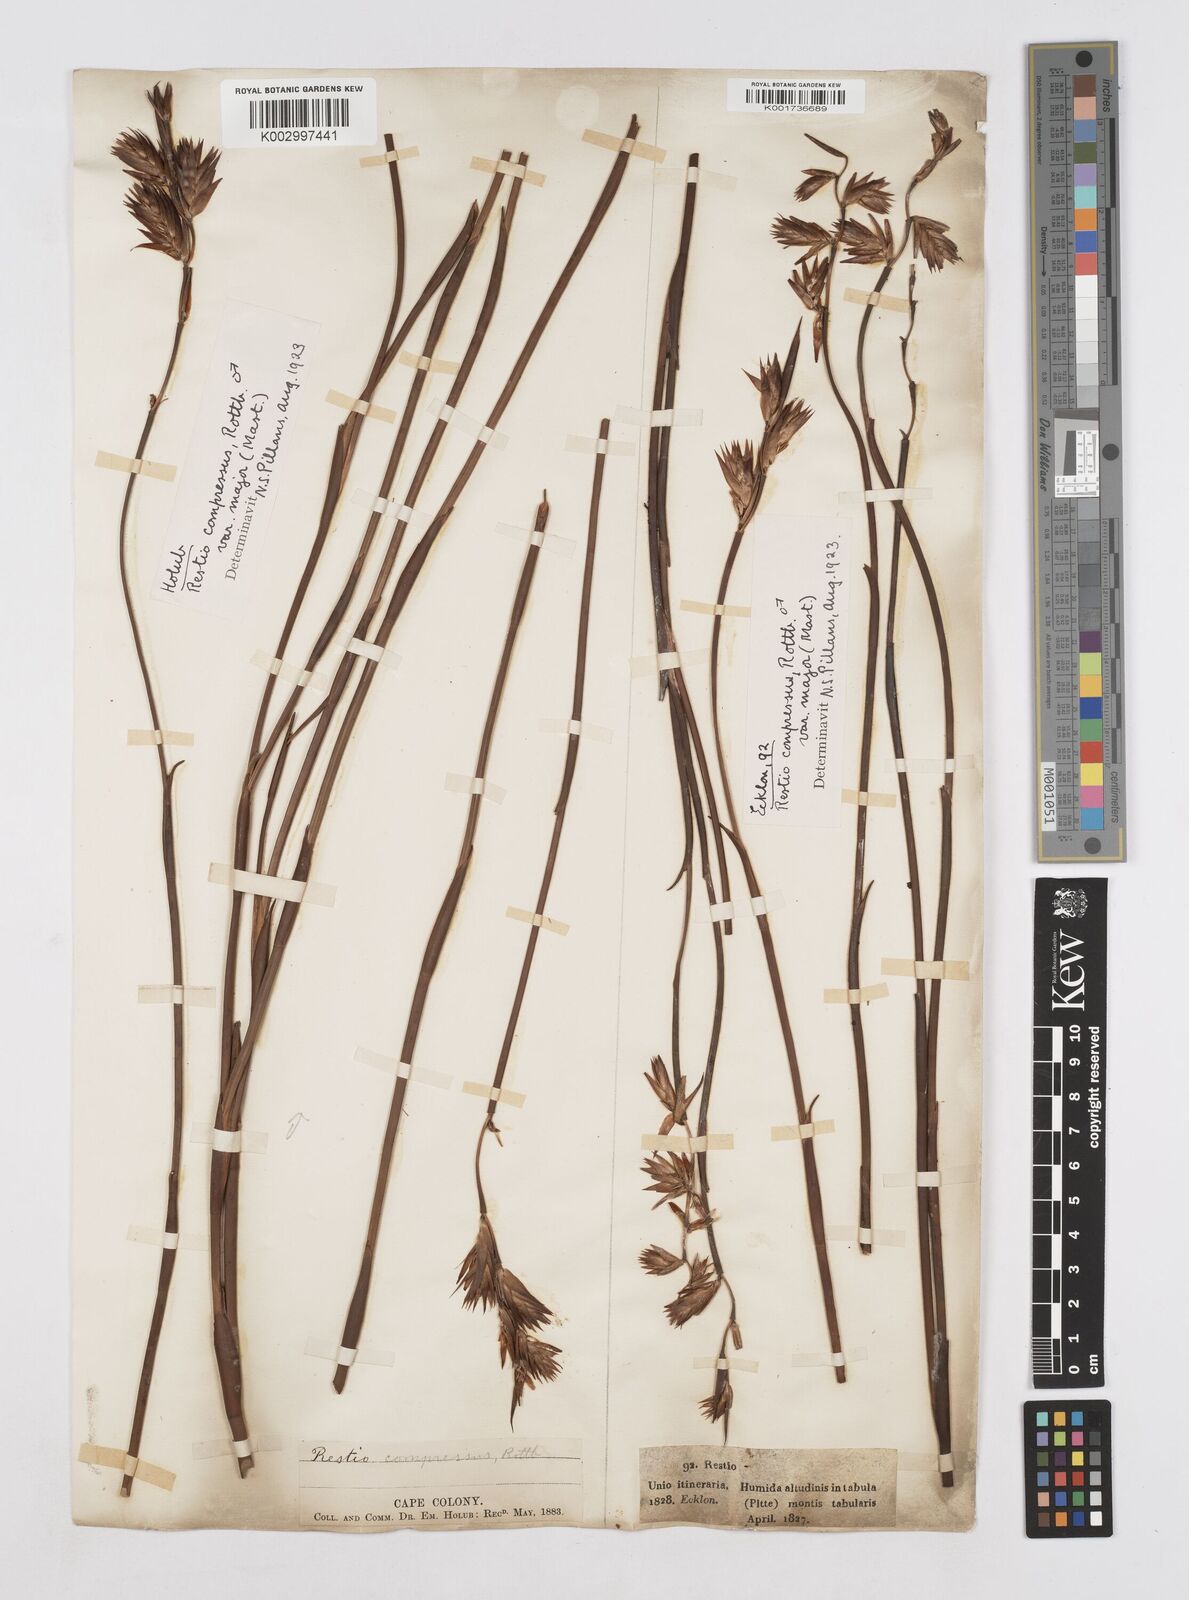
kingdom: Plantae
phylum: Tracheophyta
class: Liliopsida
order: Poales
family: Restionaceae
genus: Platycaulos
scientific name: Platycaulos major
